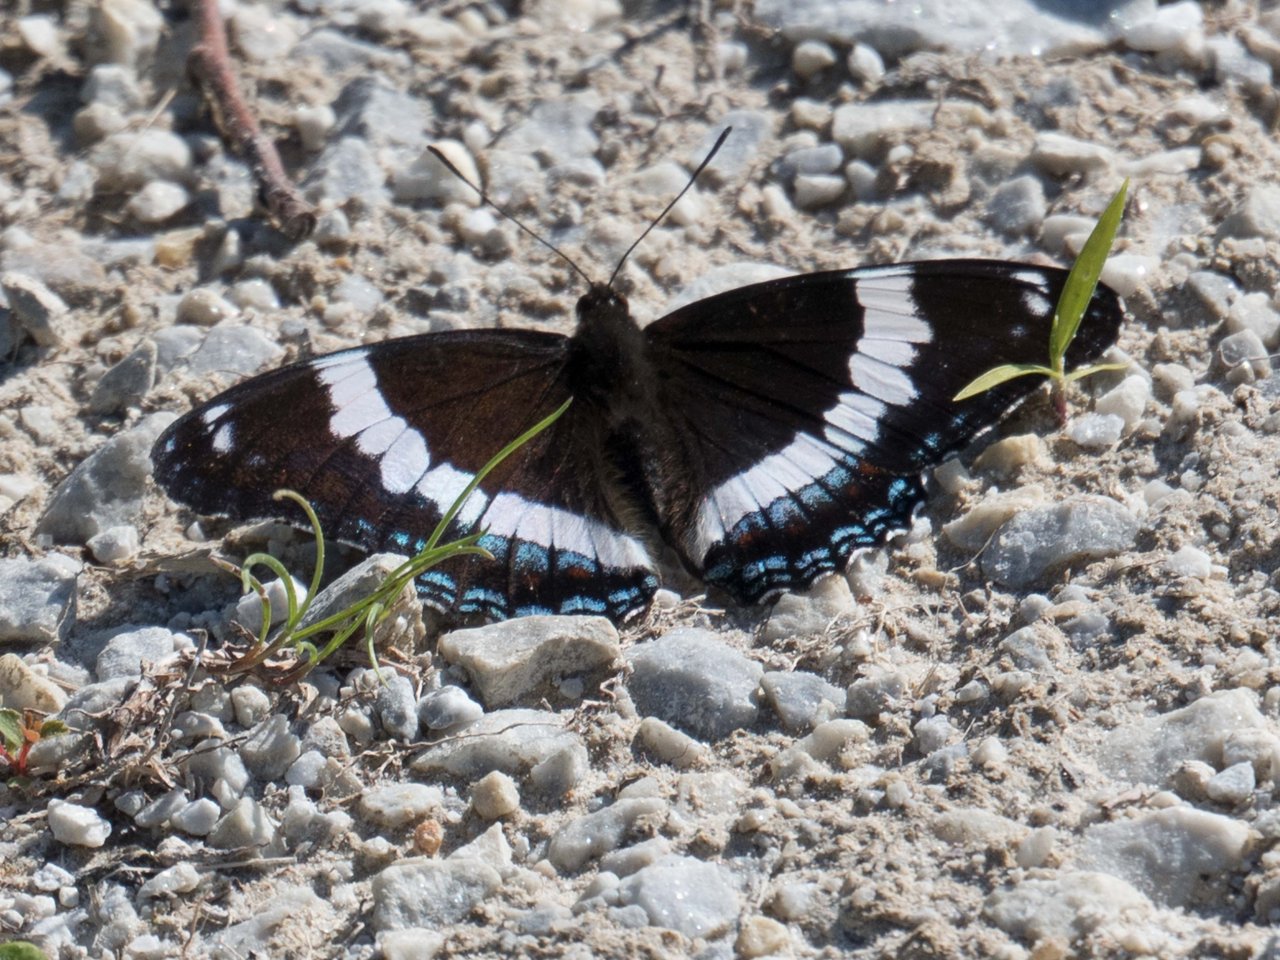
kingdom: Animalia
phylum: Arthropoda
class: Insecta
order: Lepidoptera
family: Nymphalidae
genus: Limenitis
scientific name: Limenitis arthemis
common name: Red-spotted Admiral
